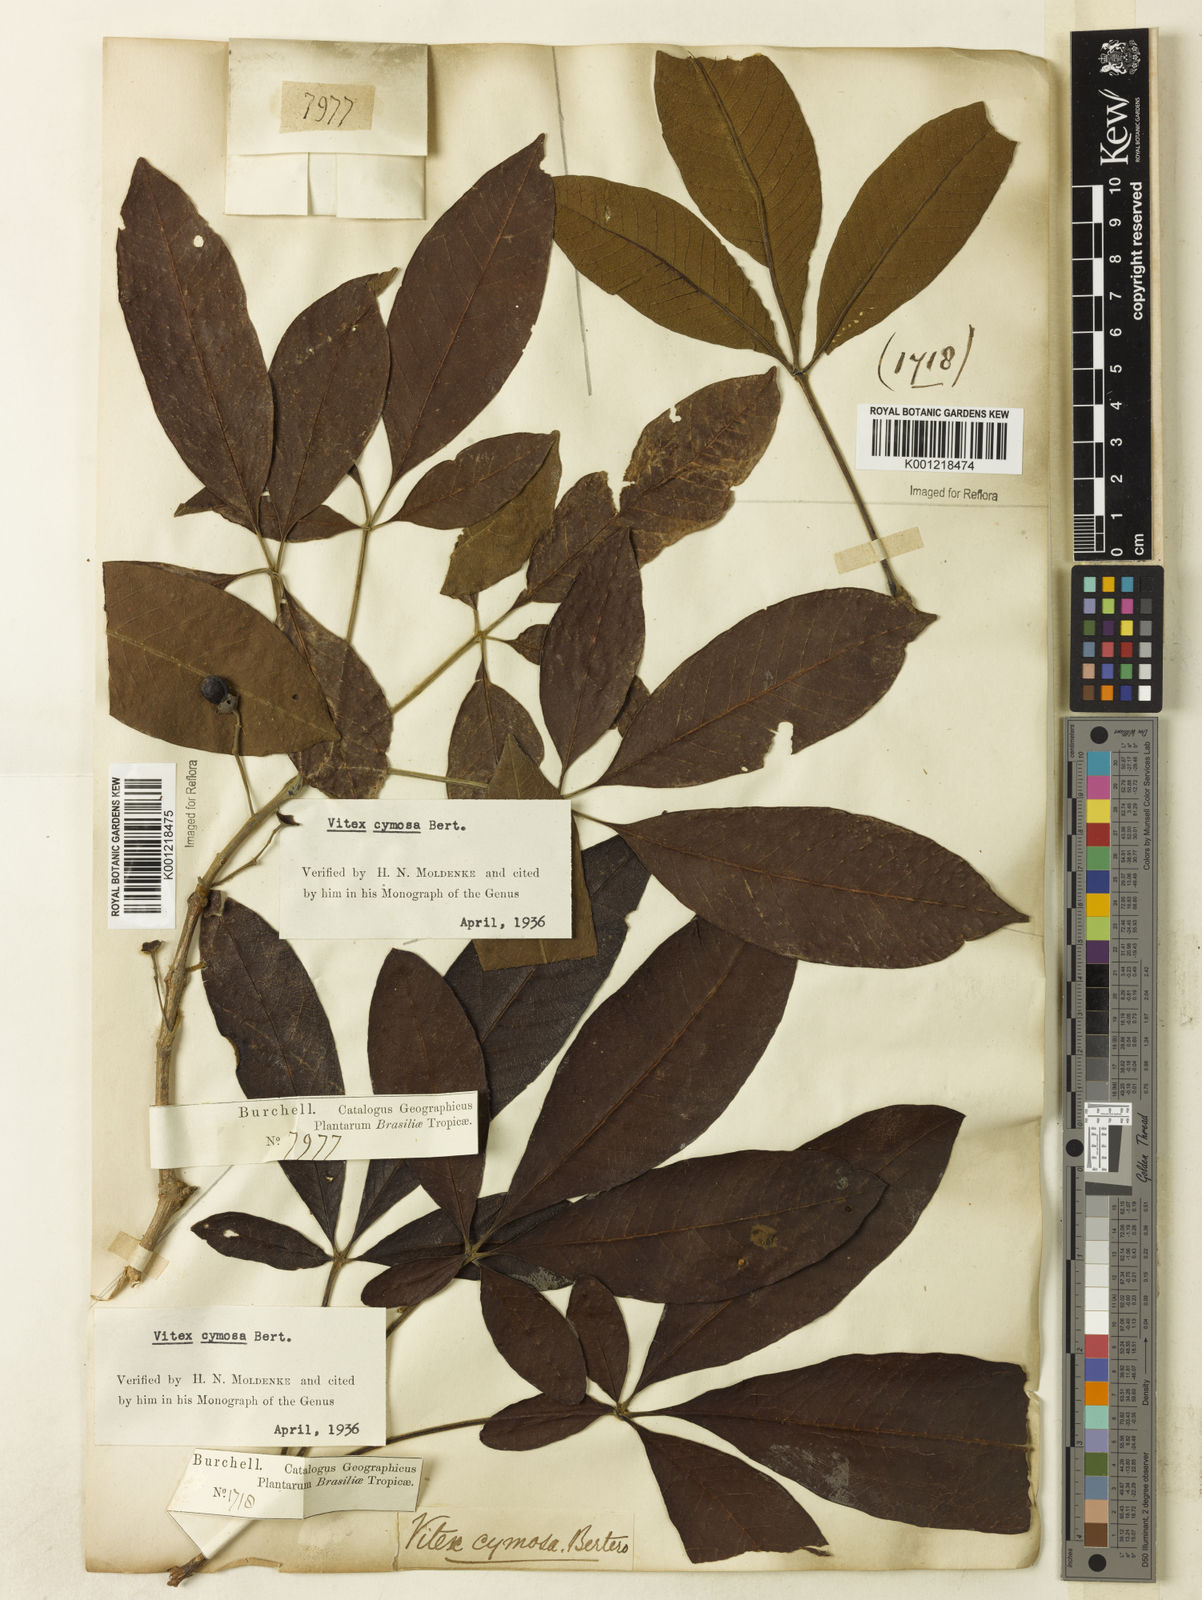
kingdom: Plantae
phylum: Tracheophyta
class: Magnoliopsida
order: Lamiales
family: Lamiaceae
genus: Vitex
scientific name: Vitex cymosa
